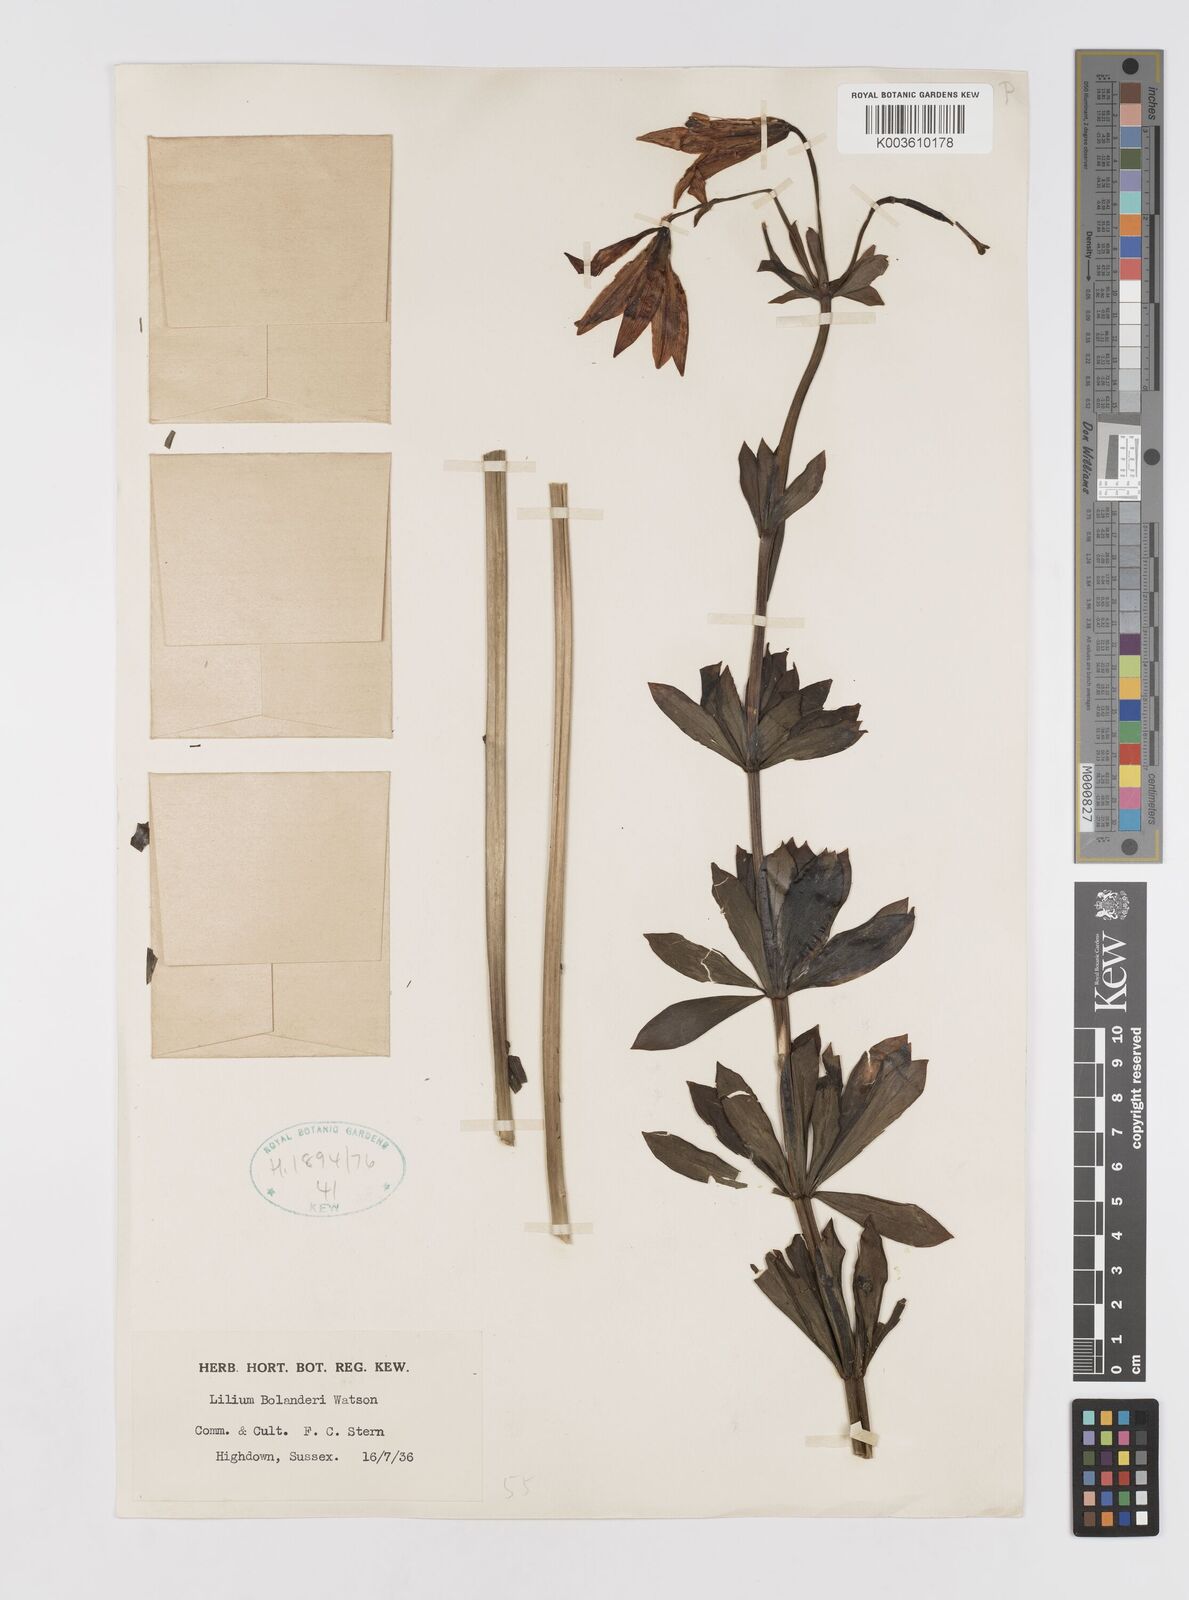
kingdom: Plantae
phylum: Tracheophyta
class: Liliopsida
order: Liliales
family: Liliaceae
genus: Lilium
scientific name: Lilium bolanderi
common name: Bolander's lily
